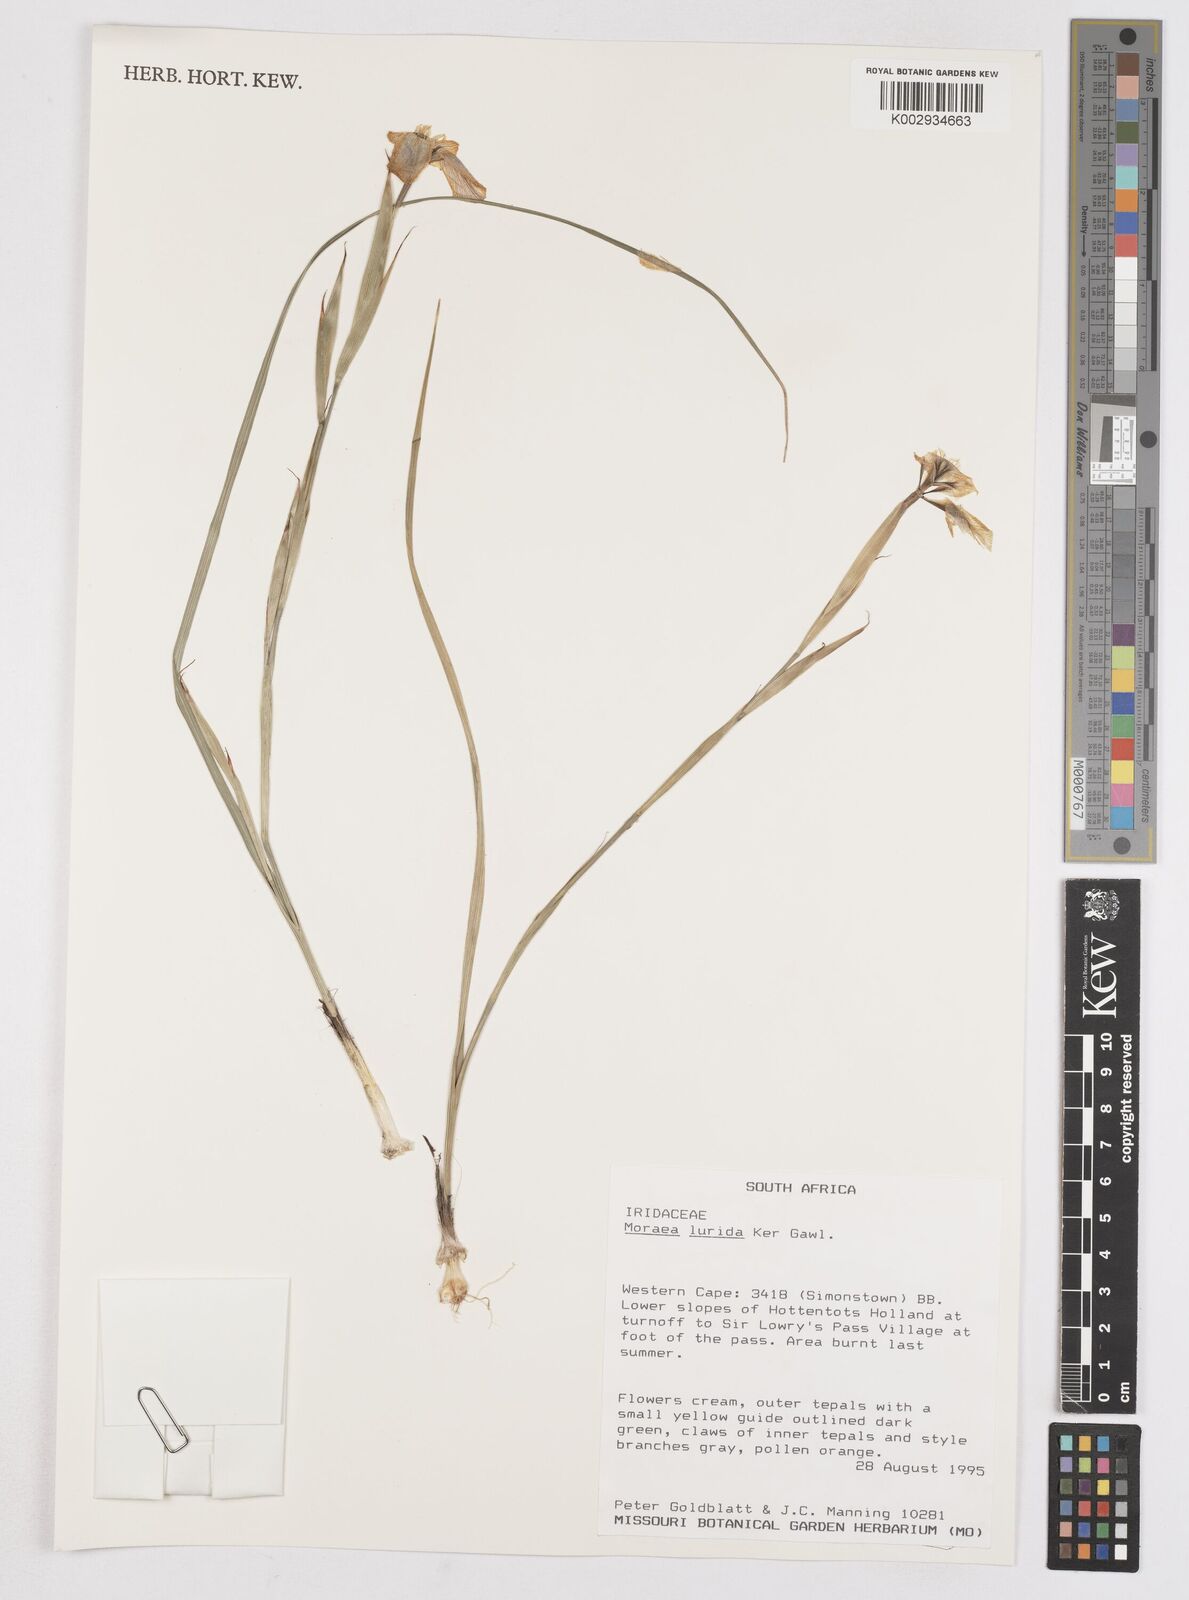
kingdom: Plantae
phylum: Tracheophyta
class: Liliopsida
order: Asparagales
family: Iridaceae
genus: Moraea
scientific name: Moraea lurida
